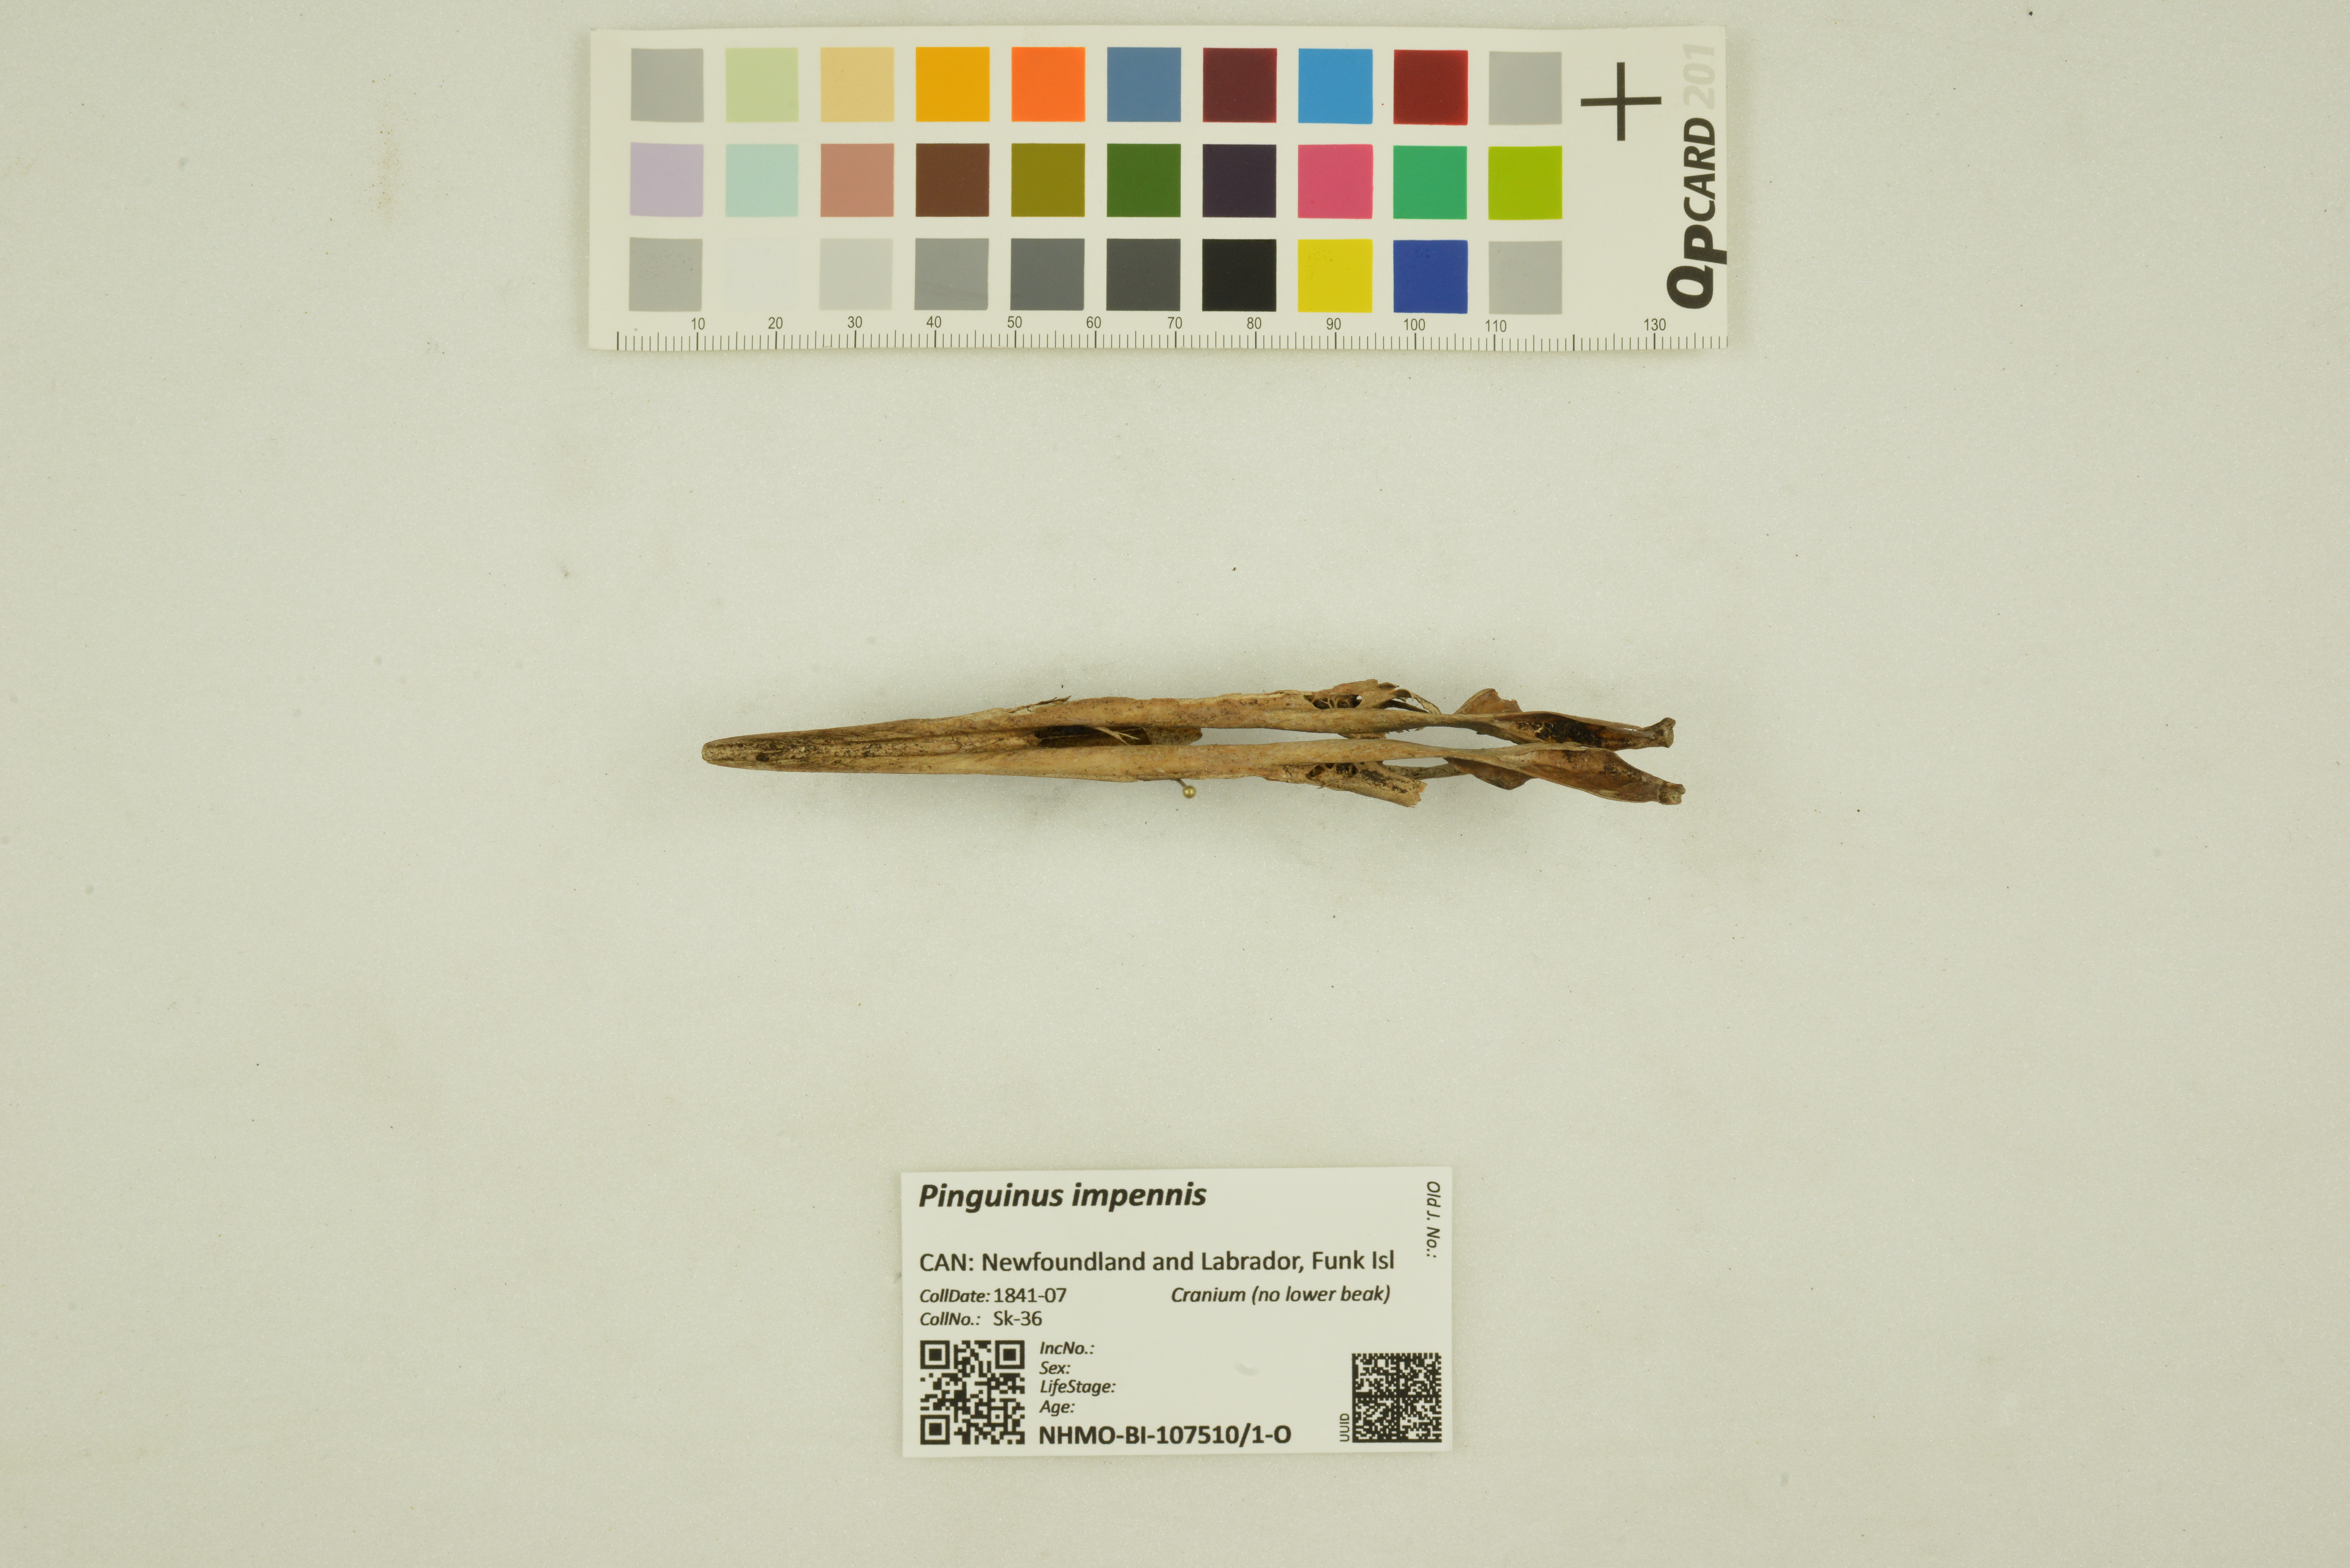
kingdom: Animalia
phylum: Chordata
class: Aves
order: Charadriiformes
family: Alcidae
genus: Pinguinus
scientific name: Pinguinus impennis
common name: Great auk
